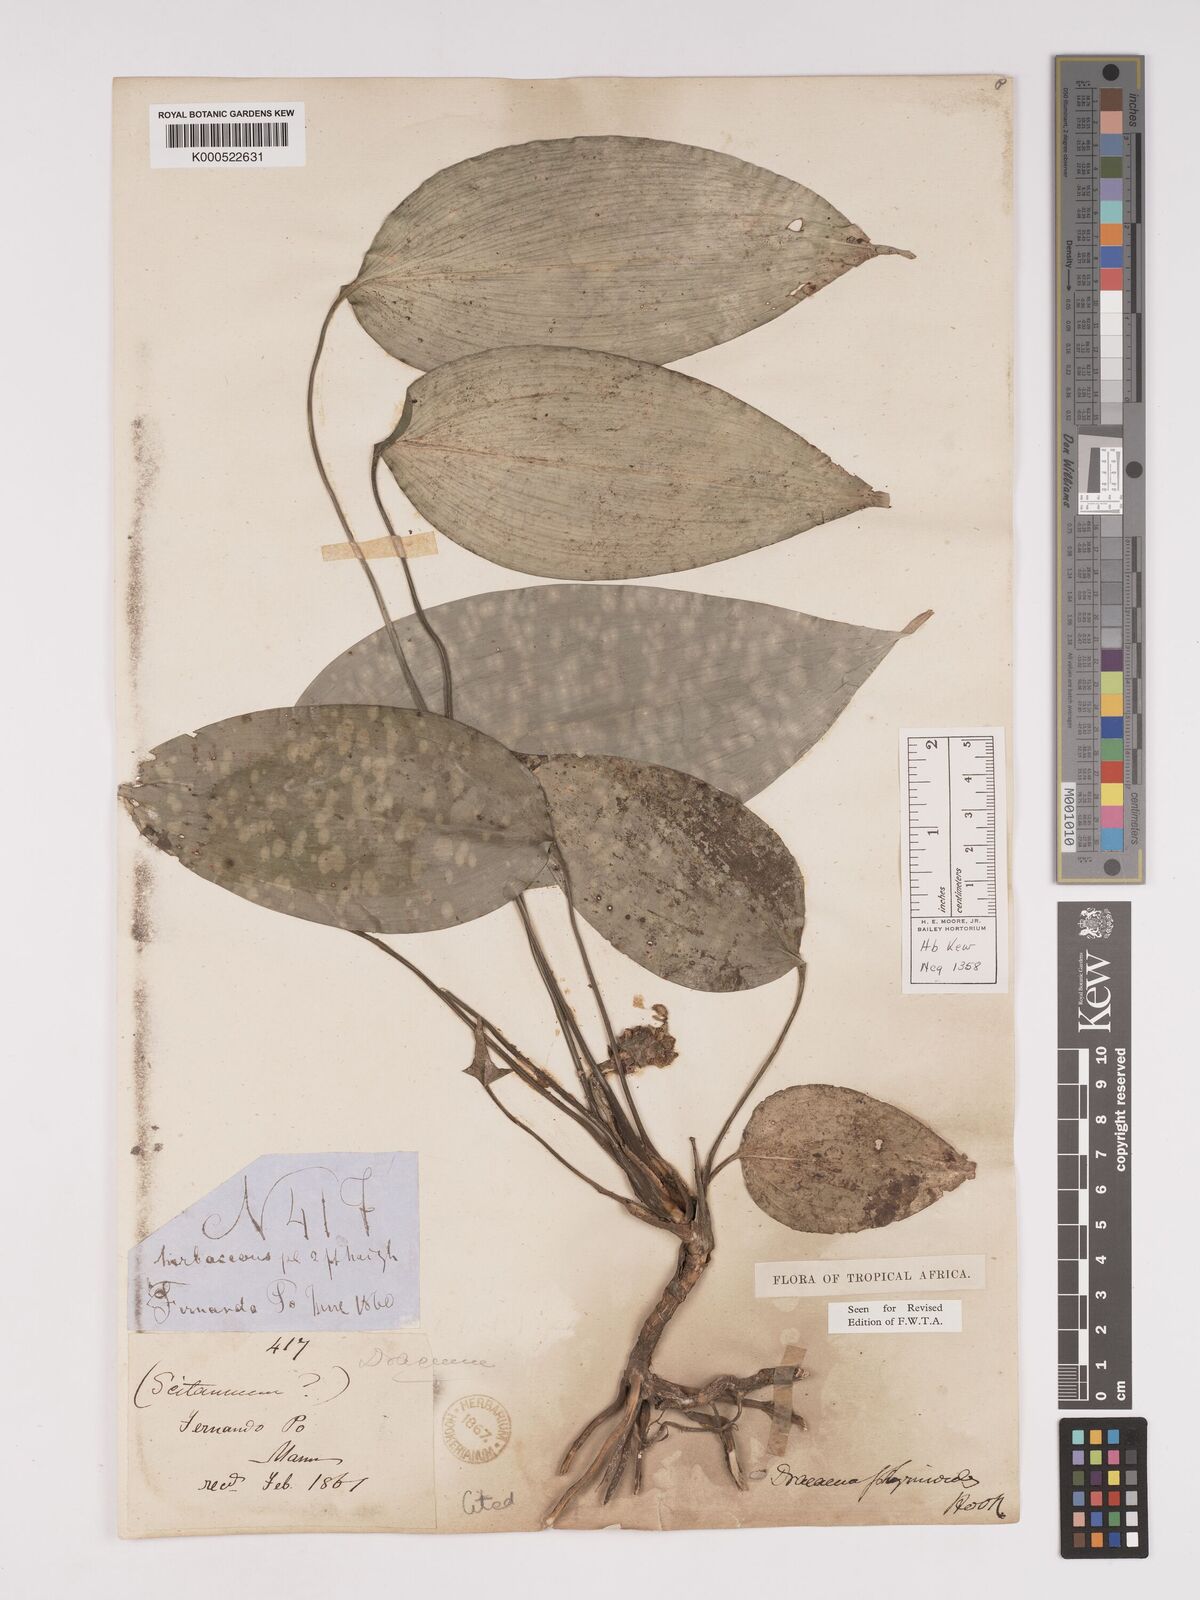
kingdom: Plantae
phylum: Tracheophyta
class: Liliopsida
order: Asparagales
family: Asparagaceae
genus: Dracaena
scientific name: Dracaena phrynioides
